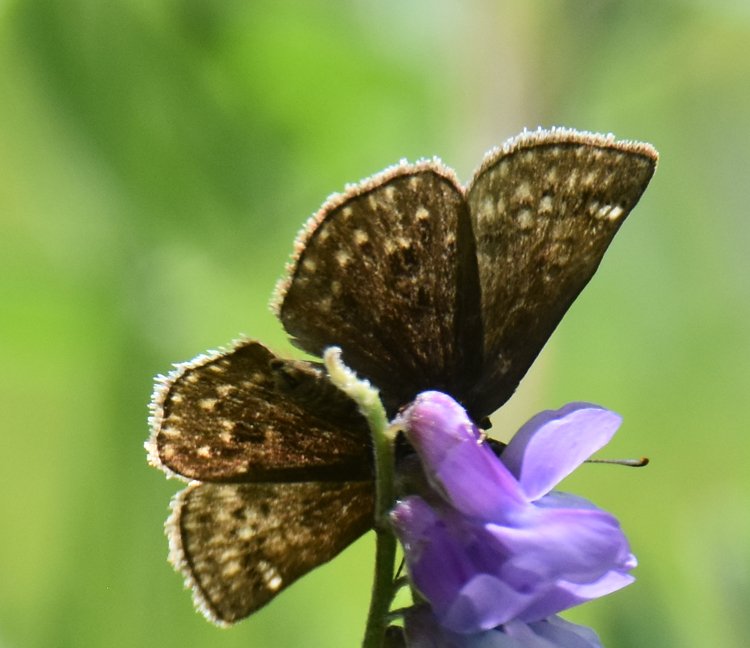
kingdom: Animalia
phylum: Arthropoda
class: Insecta
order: Lepidoptera
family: Hesperiidae
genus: Gesta
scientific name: Gesta
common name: Wild Indigo Duskywing
